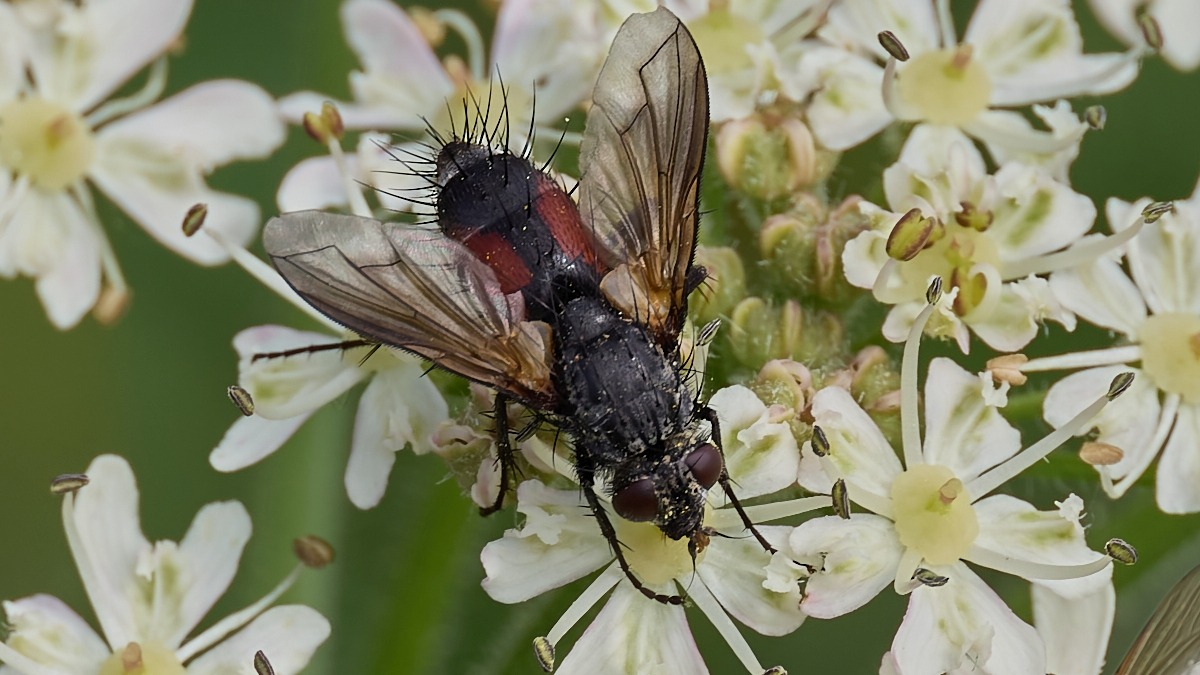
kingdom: Animalia
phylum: Arthropoda
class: Insecta
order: Diptera
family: Tachinidae
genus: Eriothrix
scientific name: Eriothrix rufomaculatus
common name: Rød snylteflue
